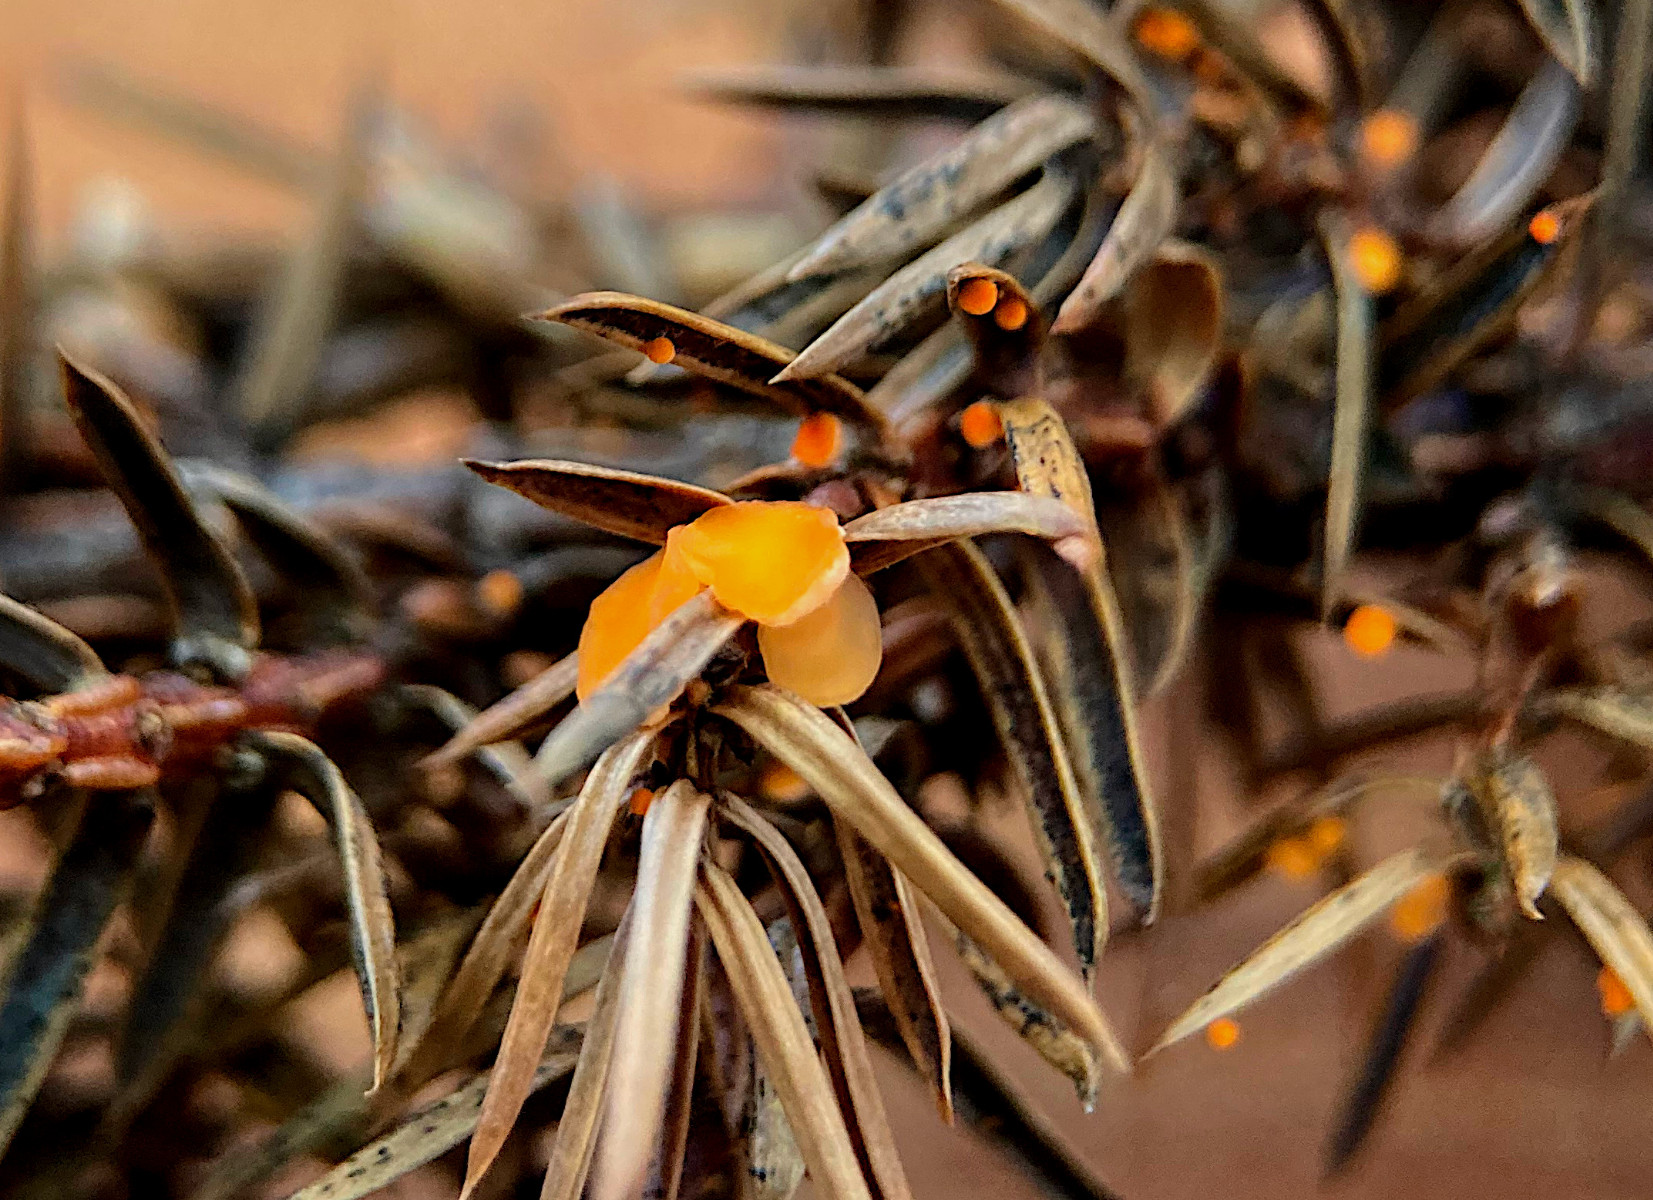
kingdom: Fungi
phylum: Ascomycota
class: Pezizomycetes
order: Pezizales
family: Sarcoscyphaceae
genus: Pithya
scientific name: Pithya cupressina
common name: lille dukatbæger
